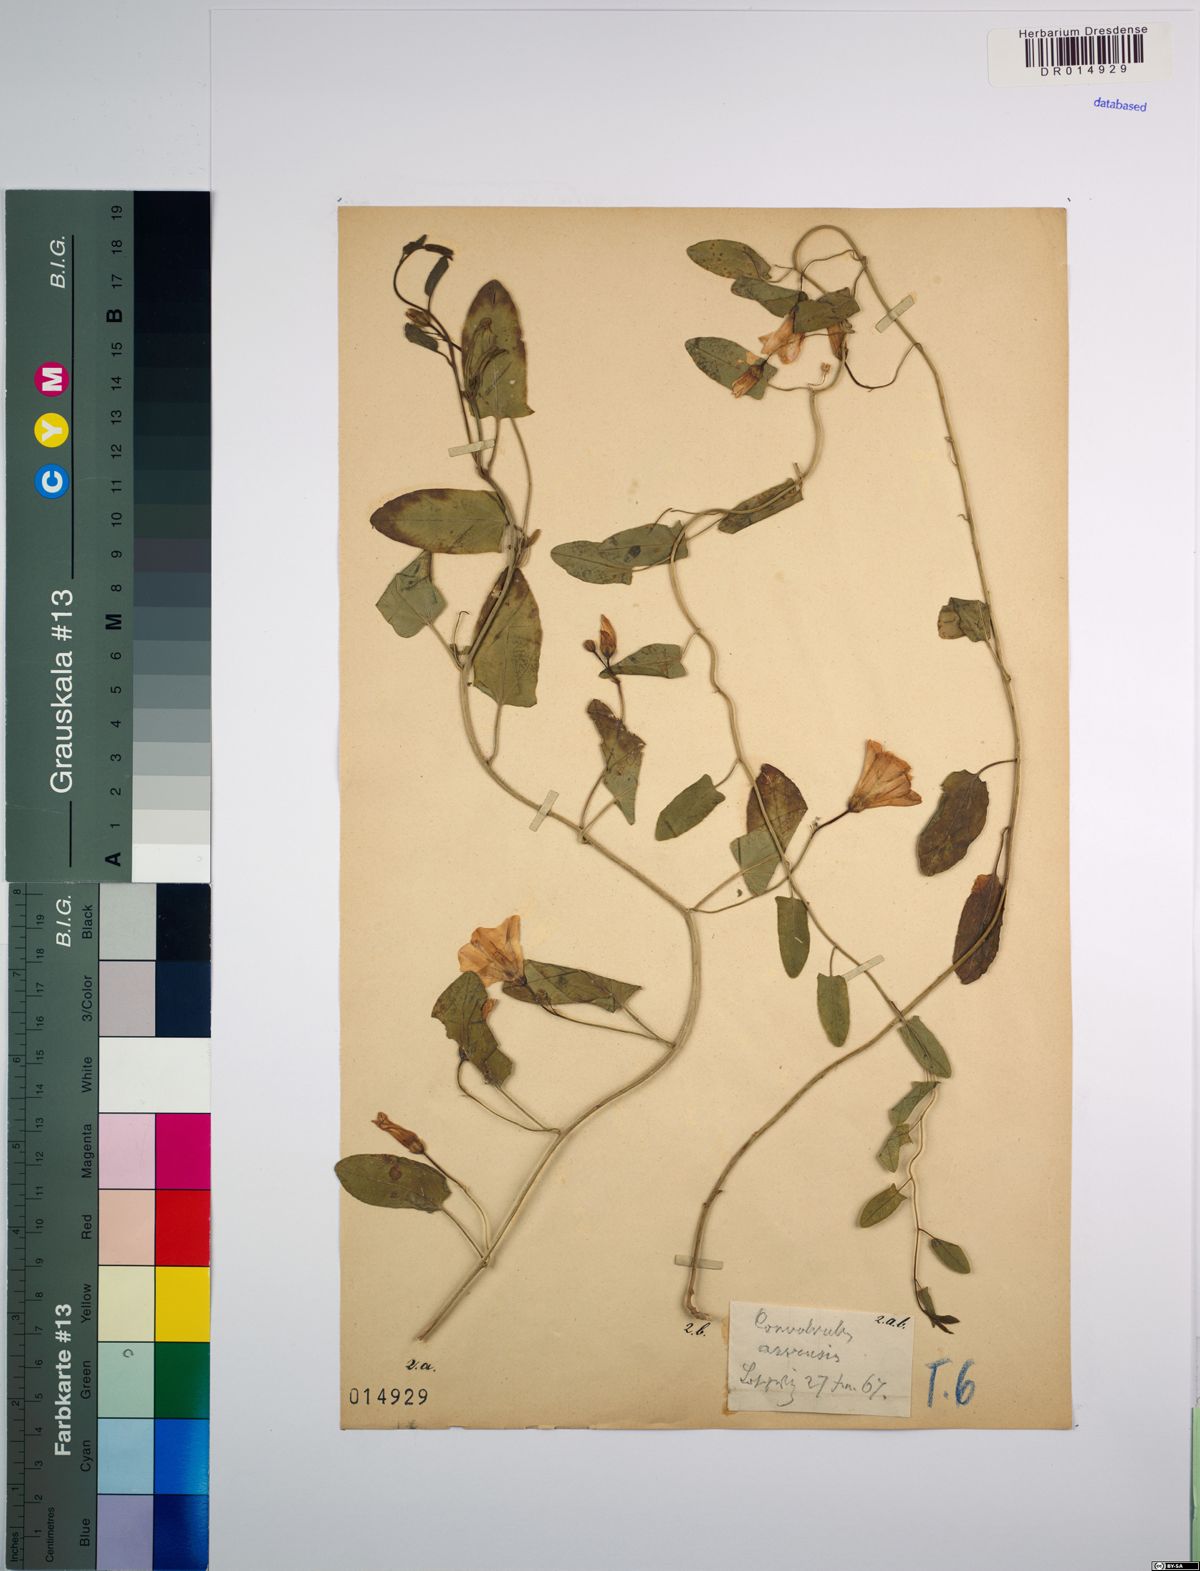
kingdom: Plantae
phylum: Tracheophyta
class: Magnoliopsida
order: Solanales
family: Convolvulaceae
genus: Convolvulus
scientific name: Convolvulus arvensis
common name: Field bindweed
